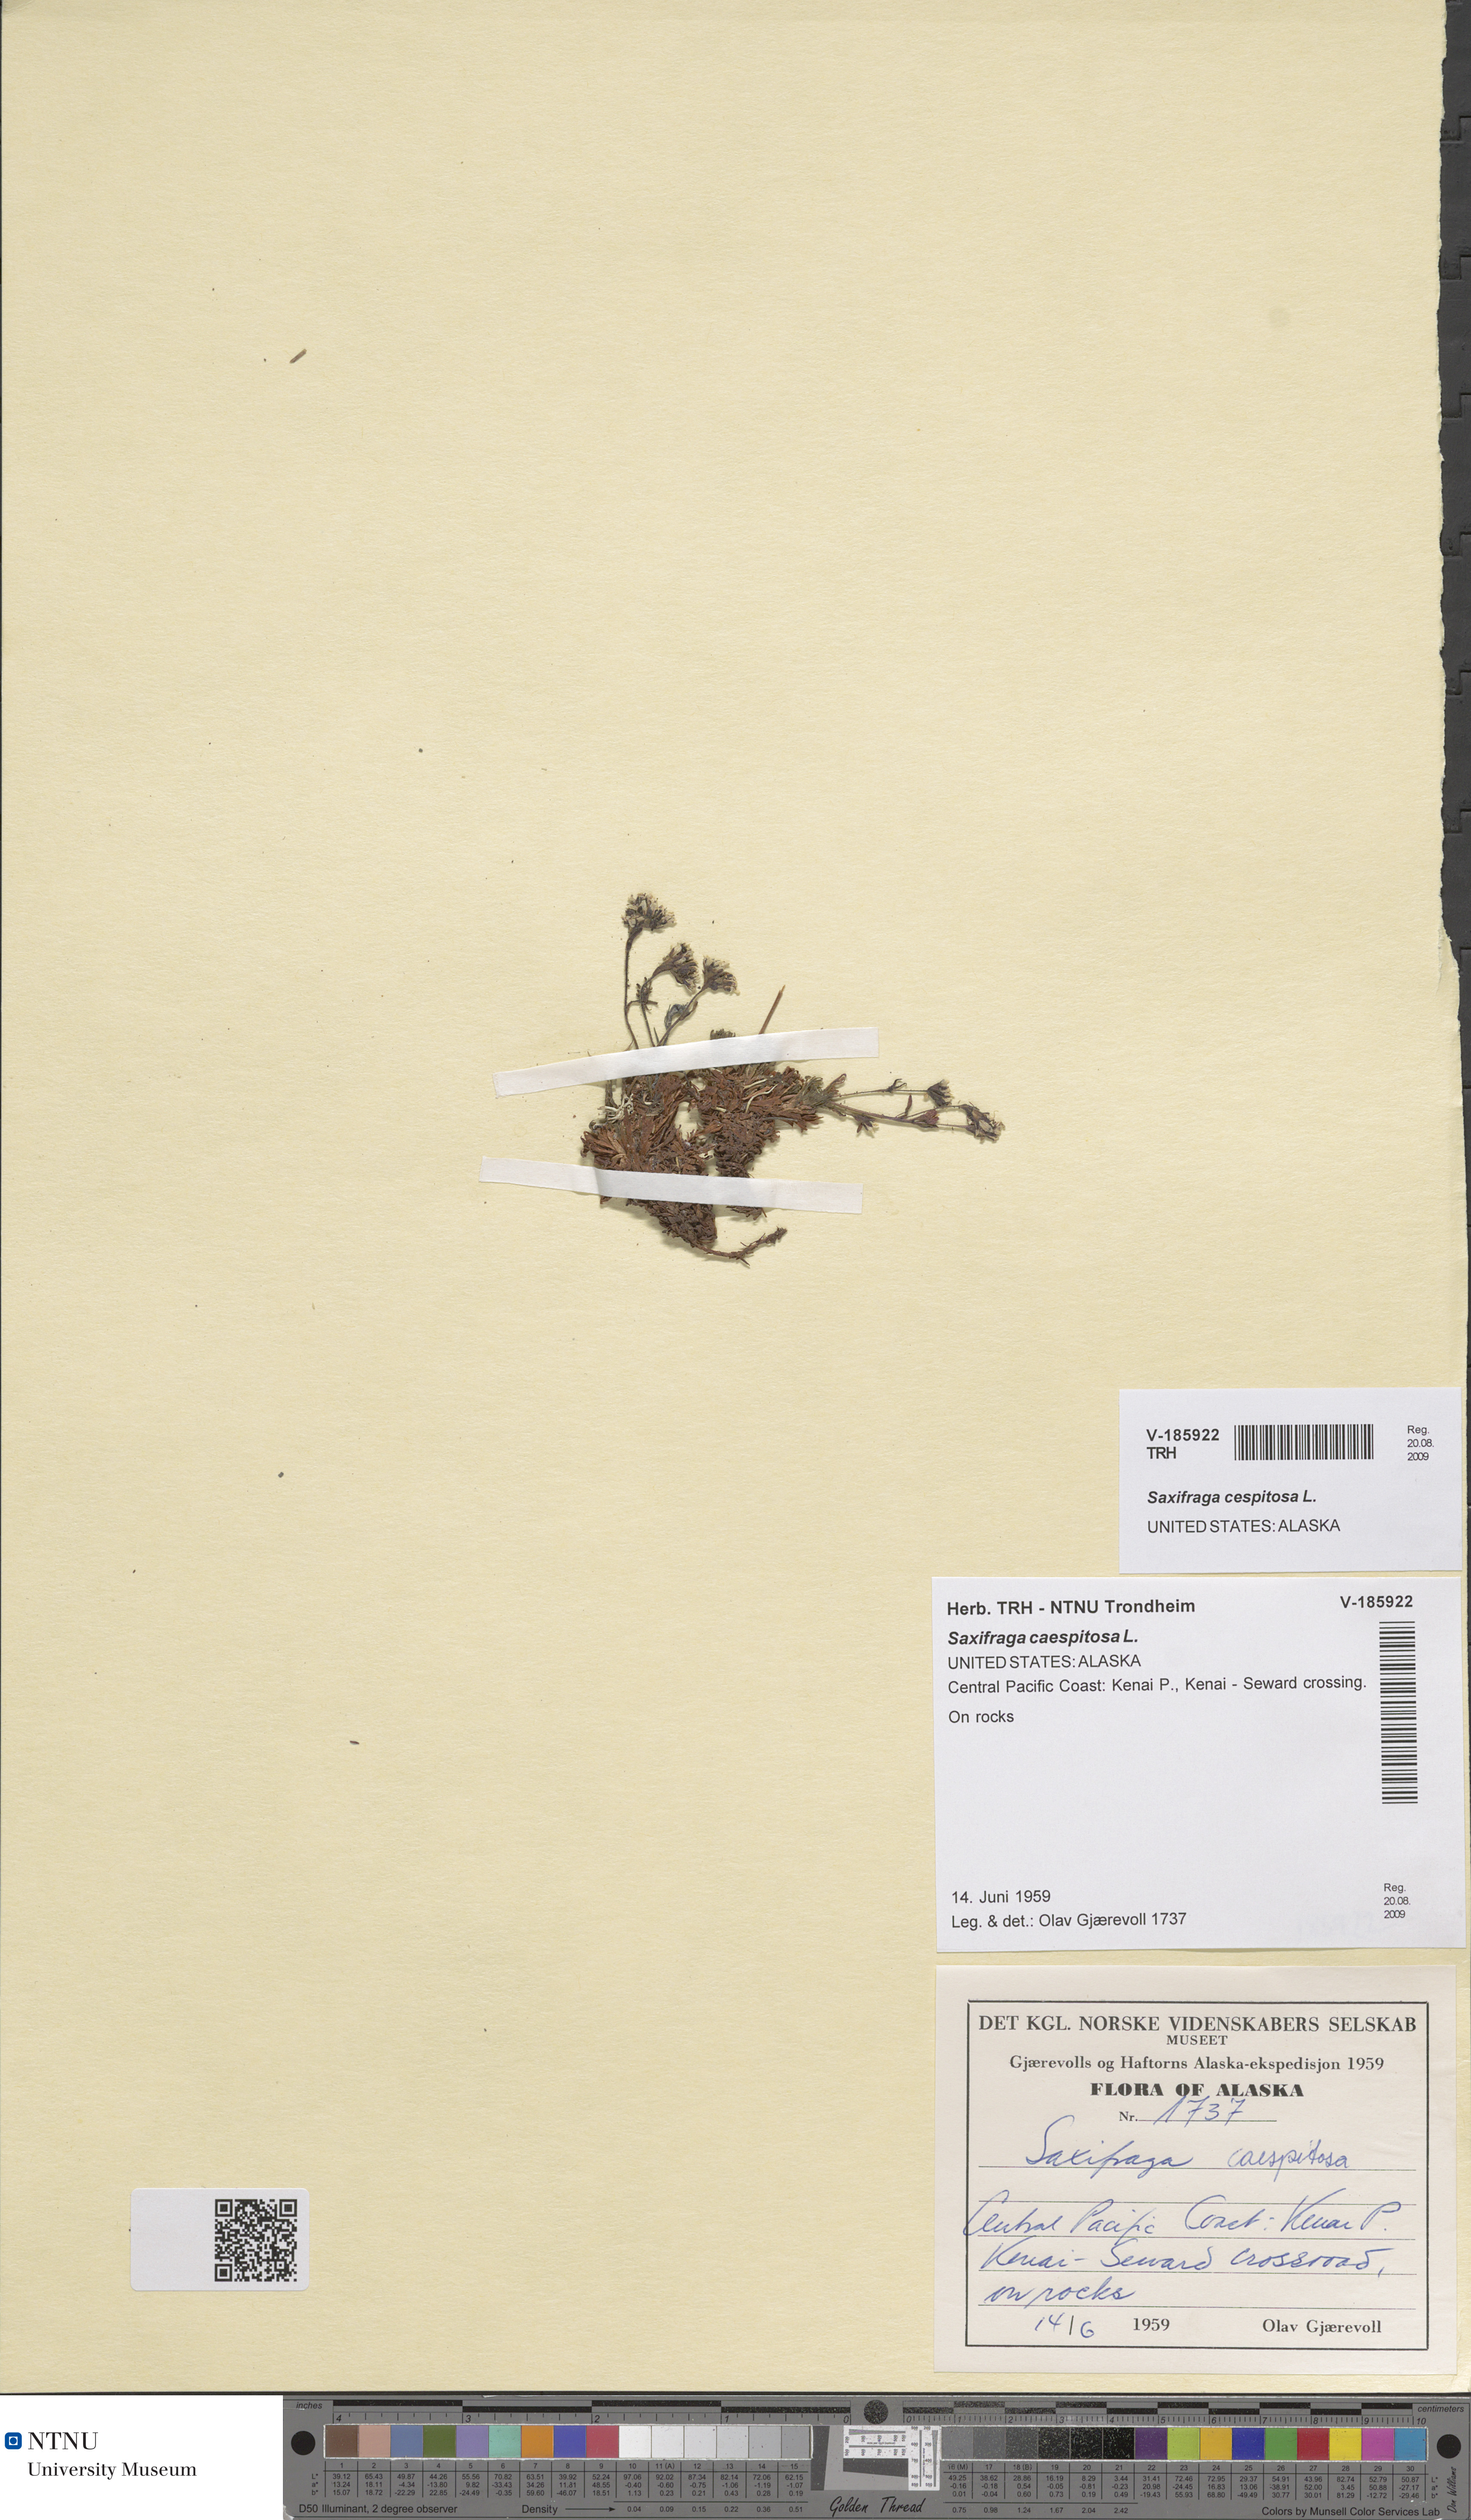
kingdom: Plantae
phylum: Tracheophyta
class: Magnoliopsida
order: Saxifragales
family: Saxifragaceae
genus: Saxifraga
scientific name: Saxifraga cespitosa
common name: Tufted saxifrage
